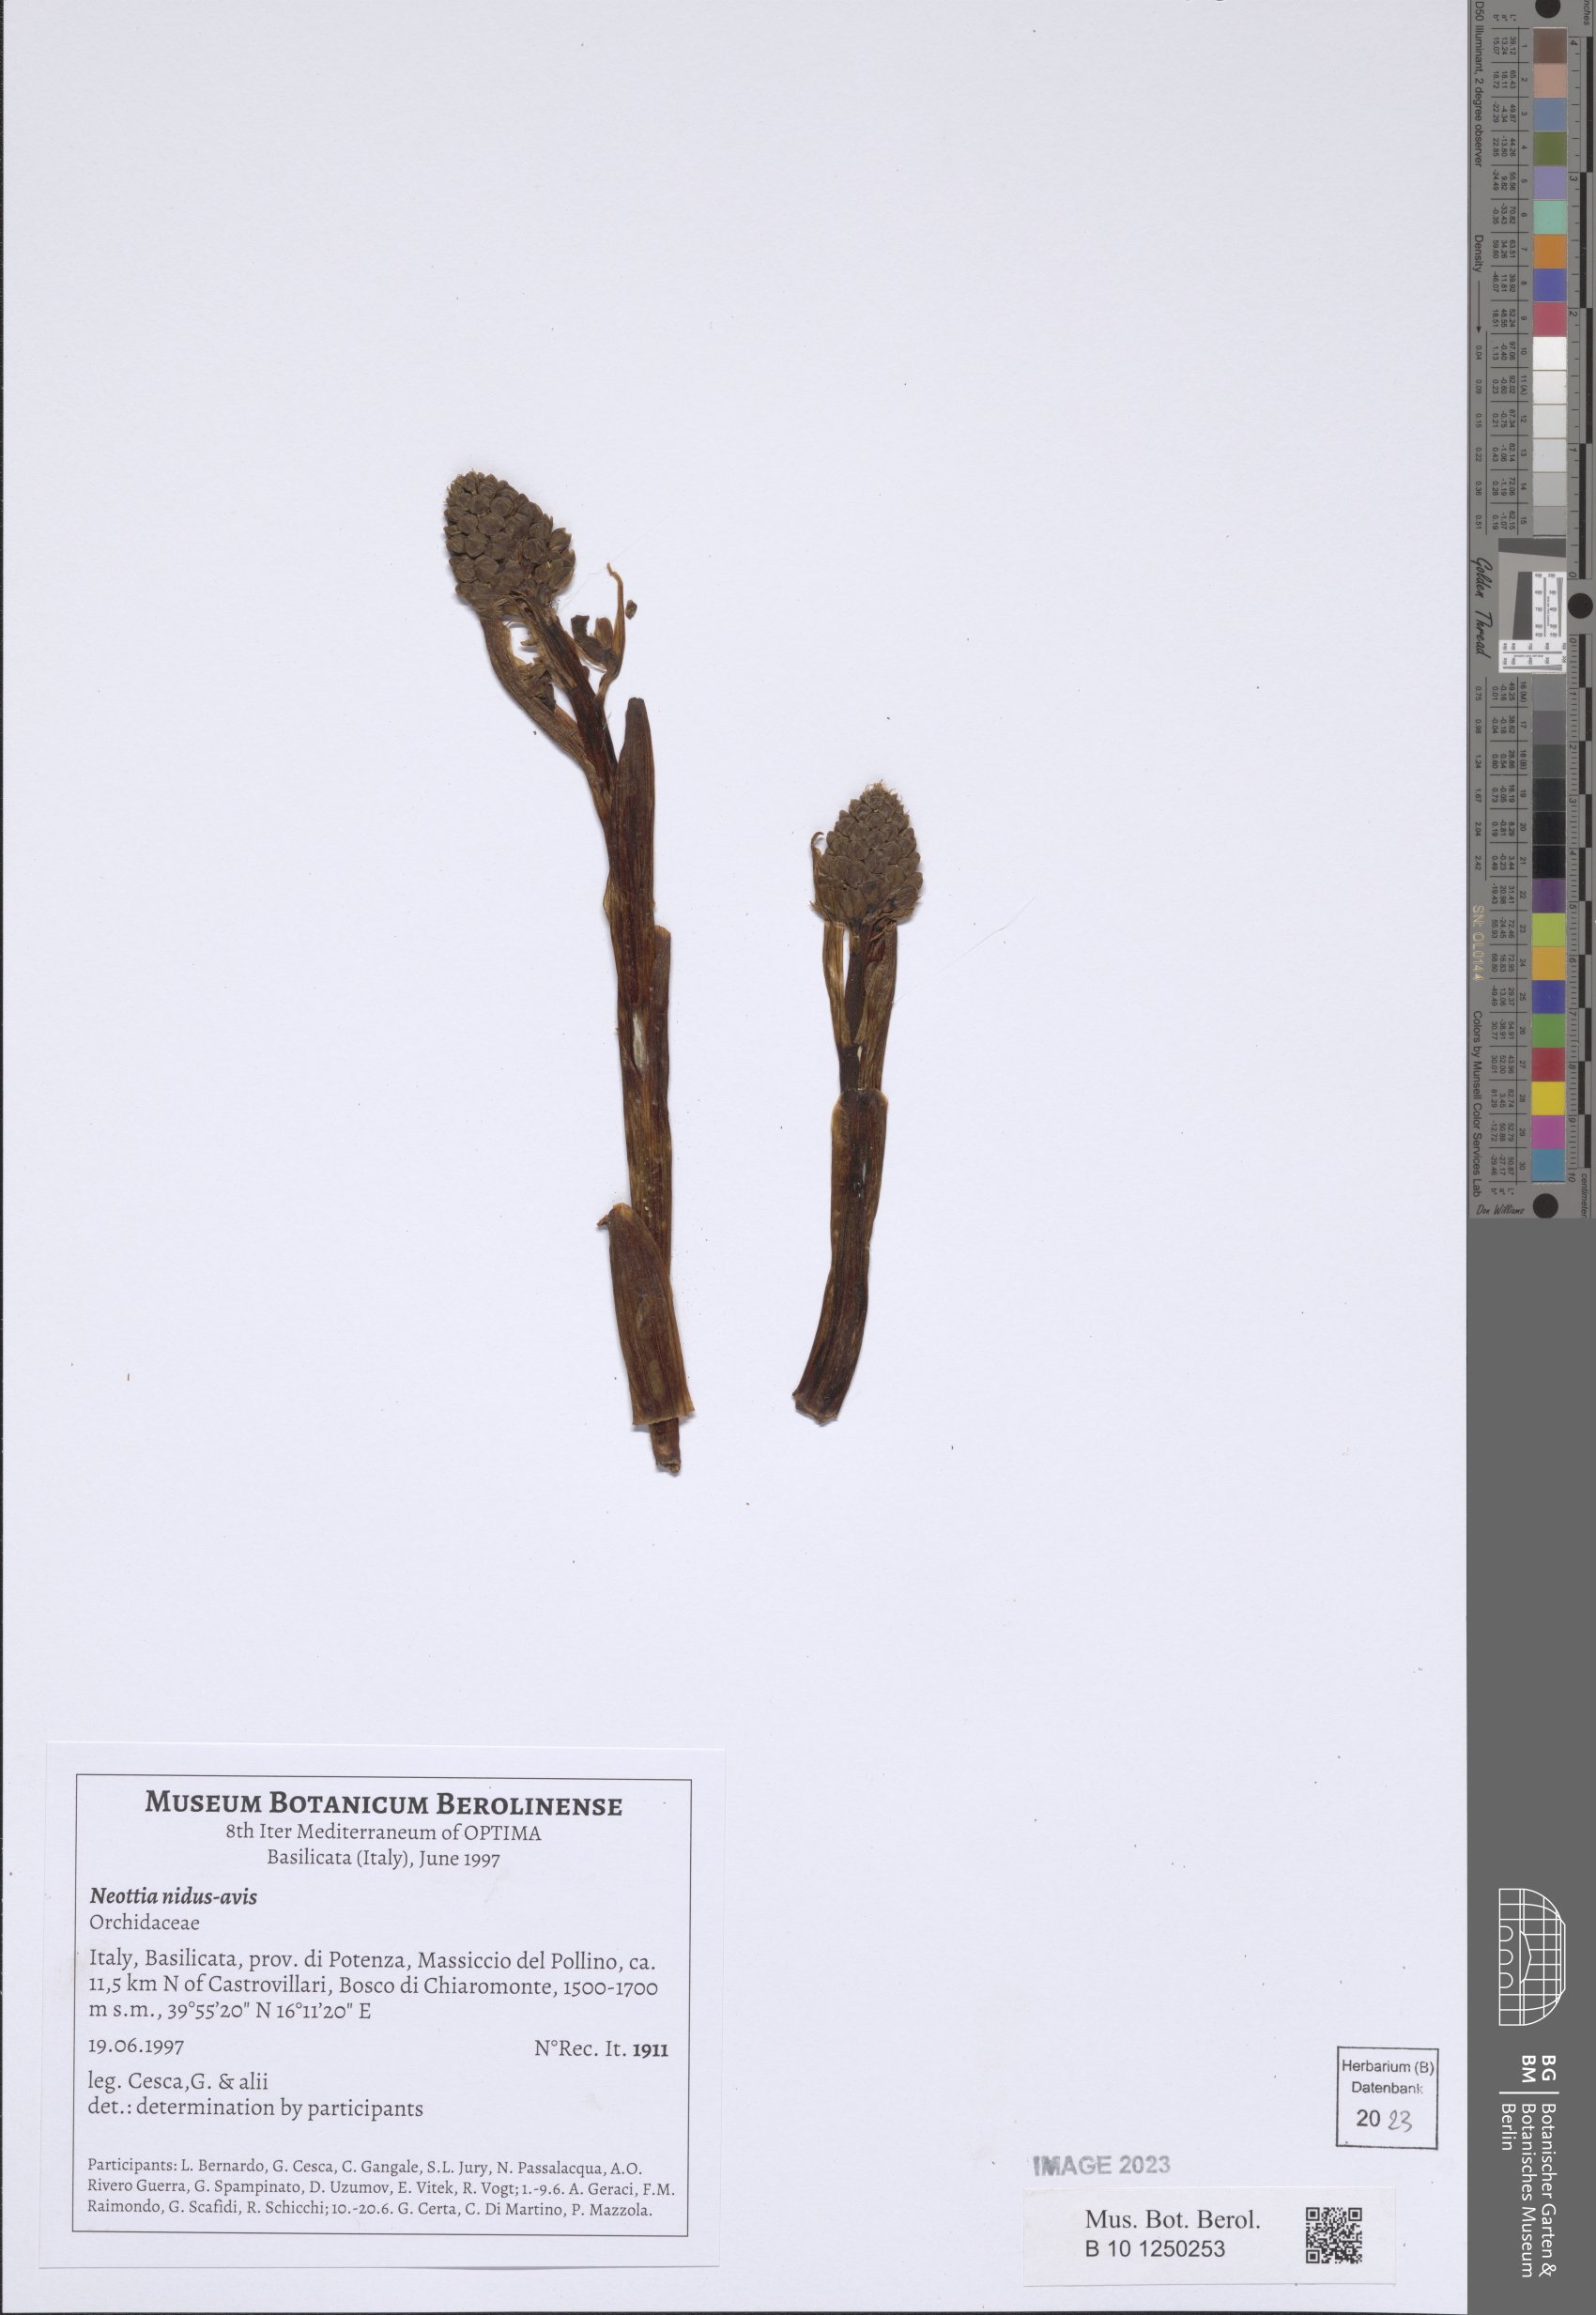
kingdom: Plantae
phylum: Tracheophyta
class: Liliopsida
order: Asparagales
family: Orchidaceae
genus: Neottia
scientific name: Neottia nidus-avis
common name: Bird's-nest orchid
